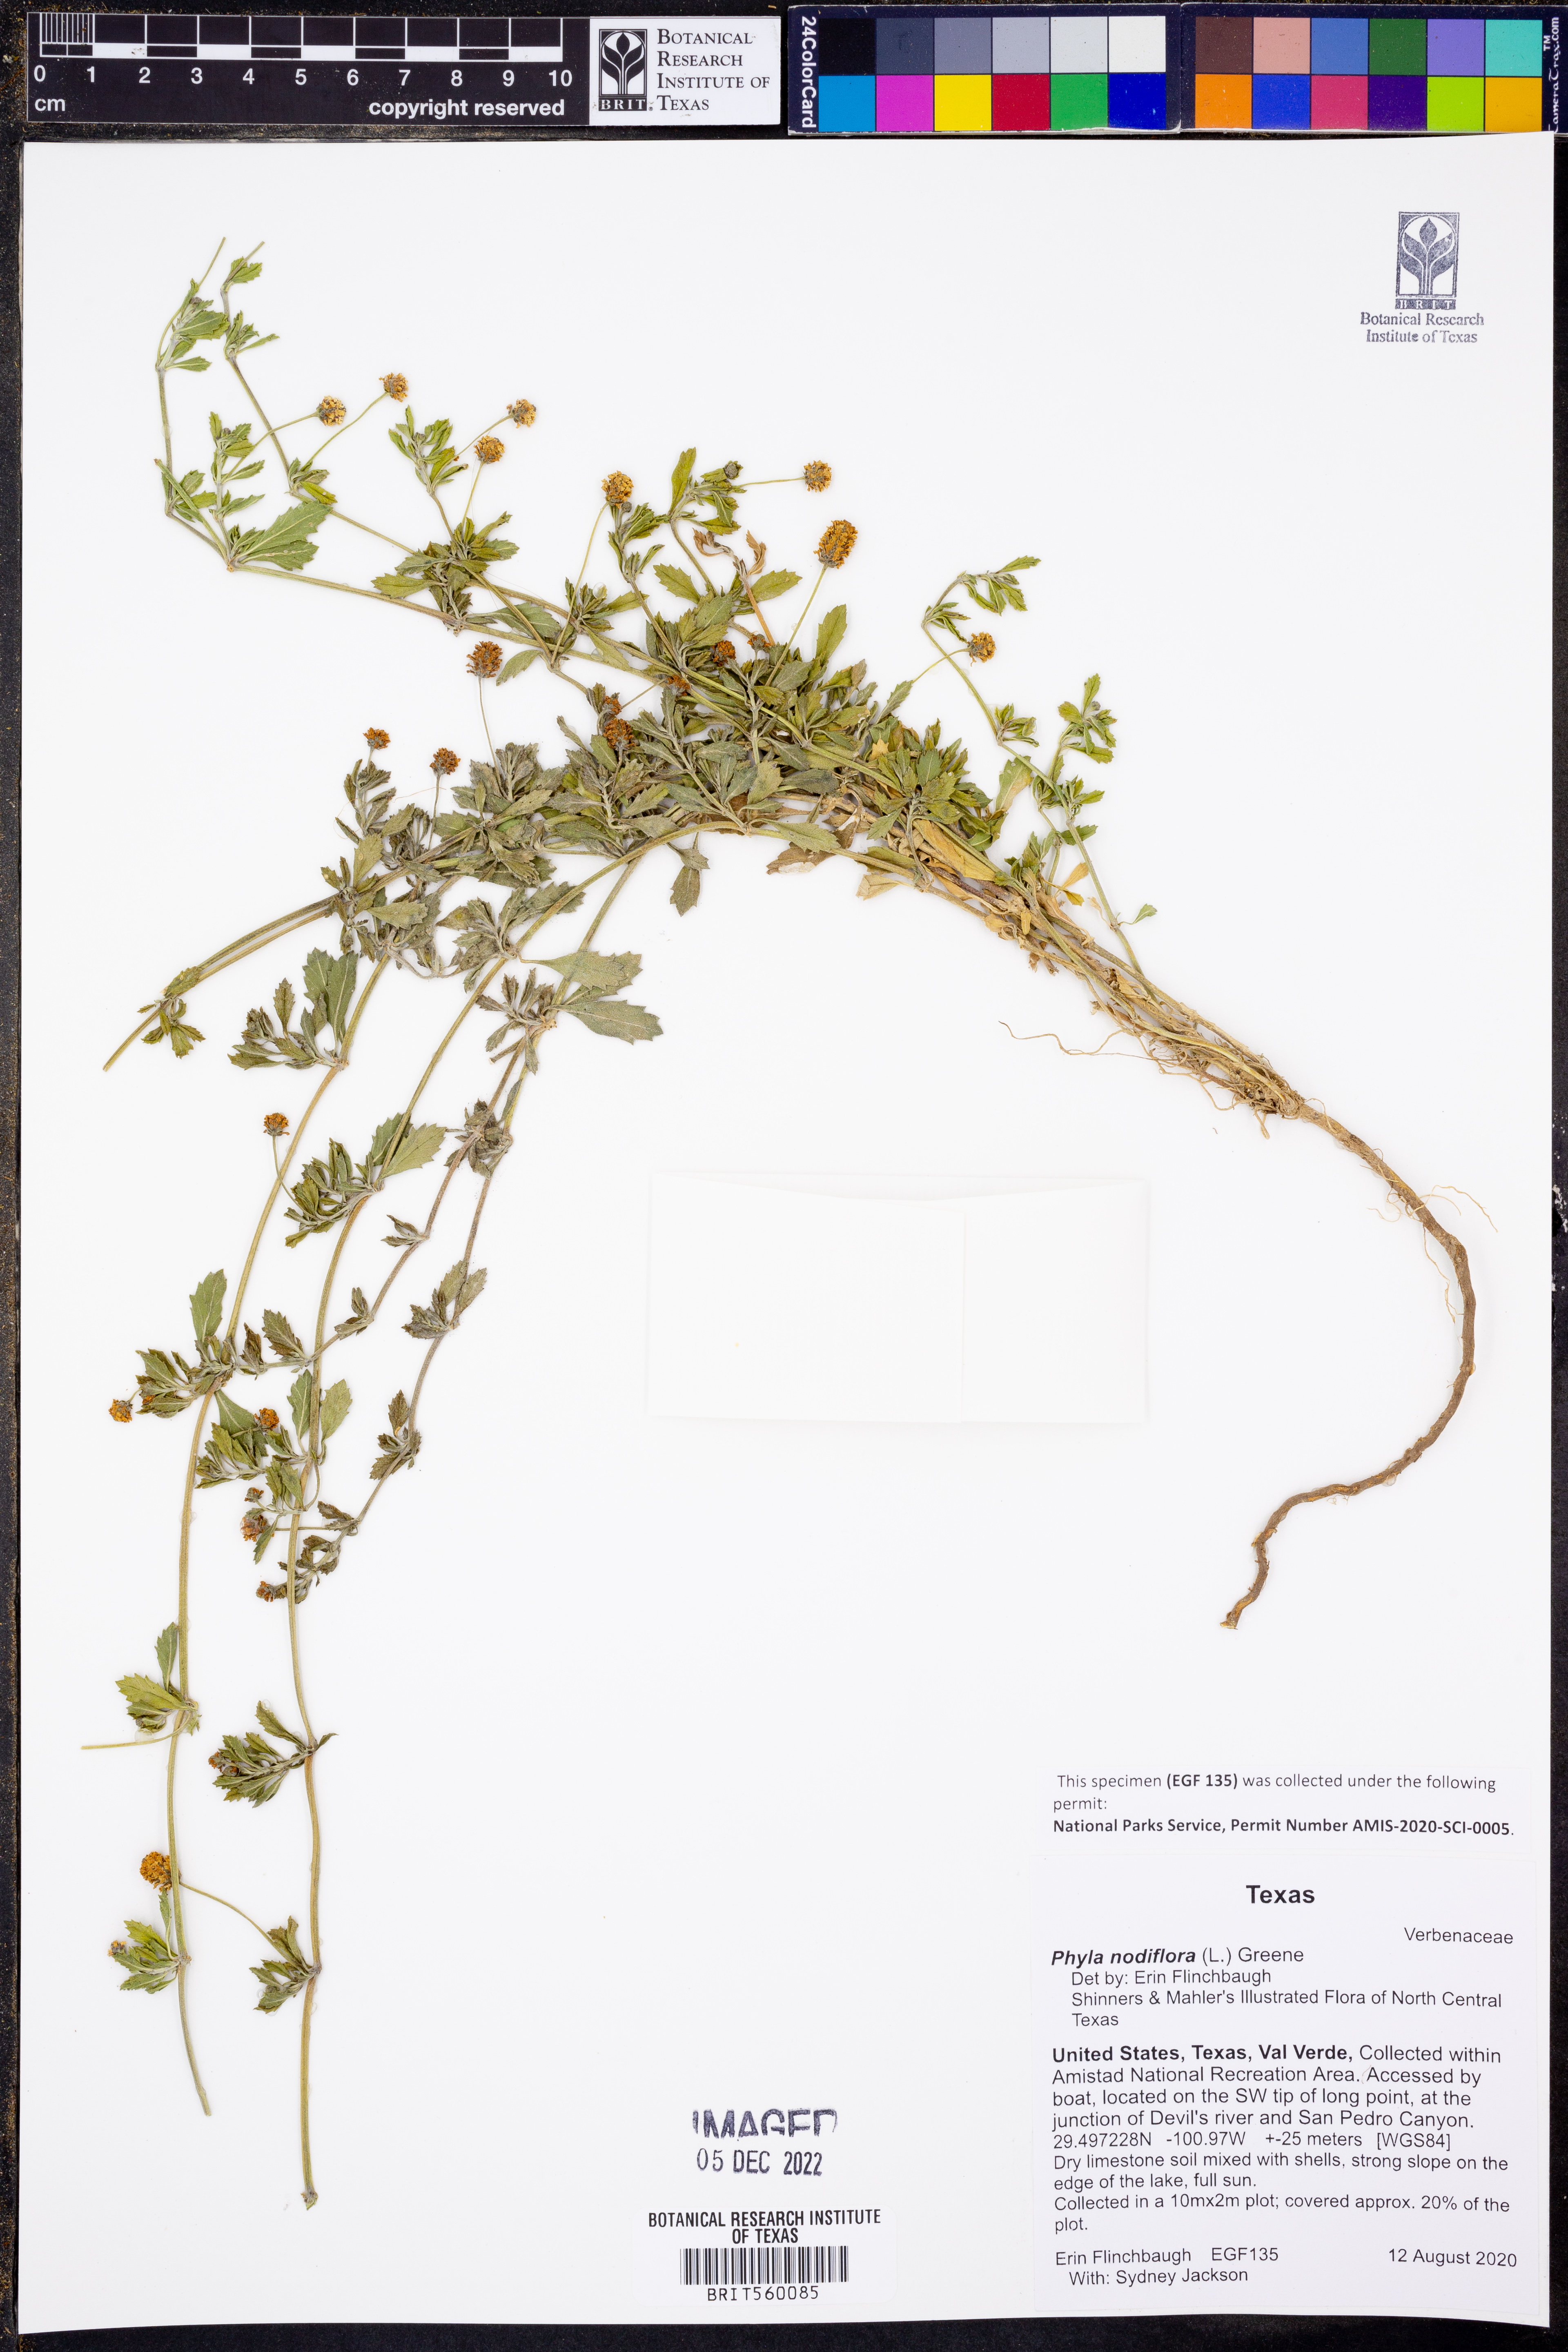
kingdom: Plantae
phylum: Tracheophyta
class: Magnoliopsida
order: Lamiales
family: Verbenaceae
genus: Phyla
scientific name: Phyla nodiflora
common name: Frogfruit
